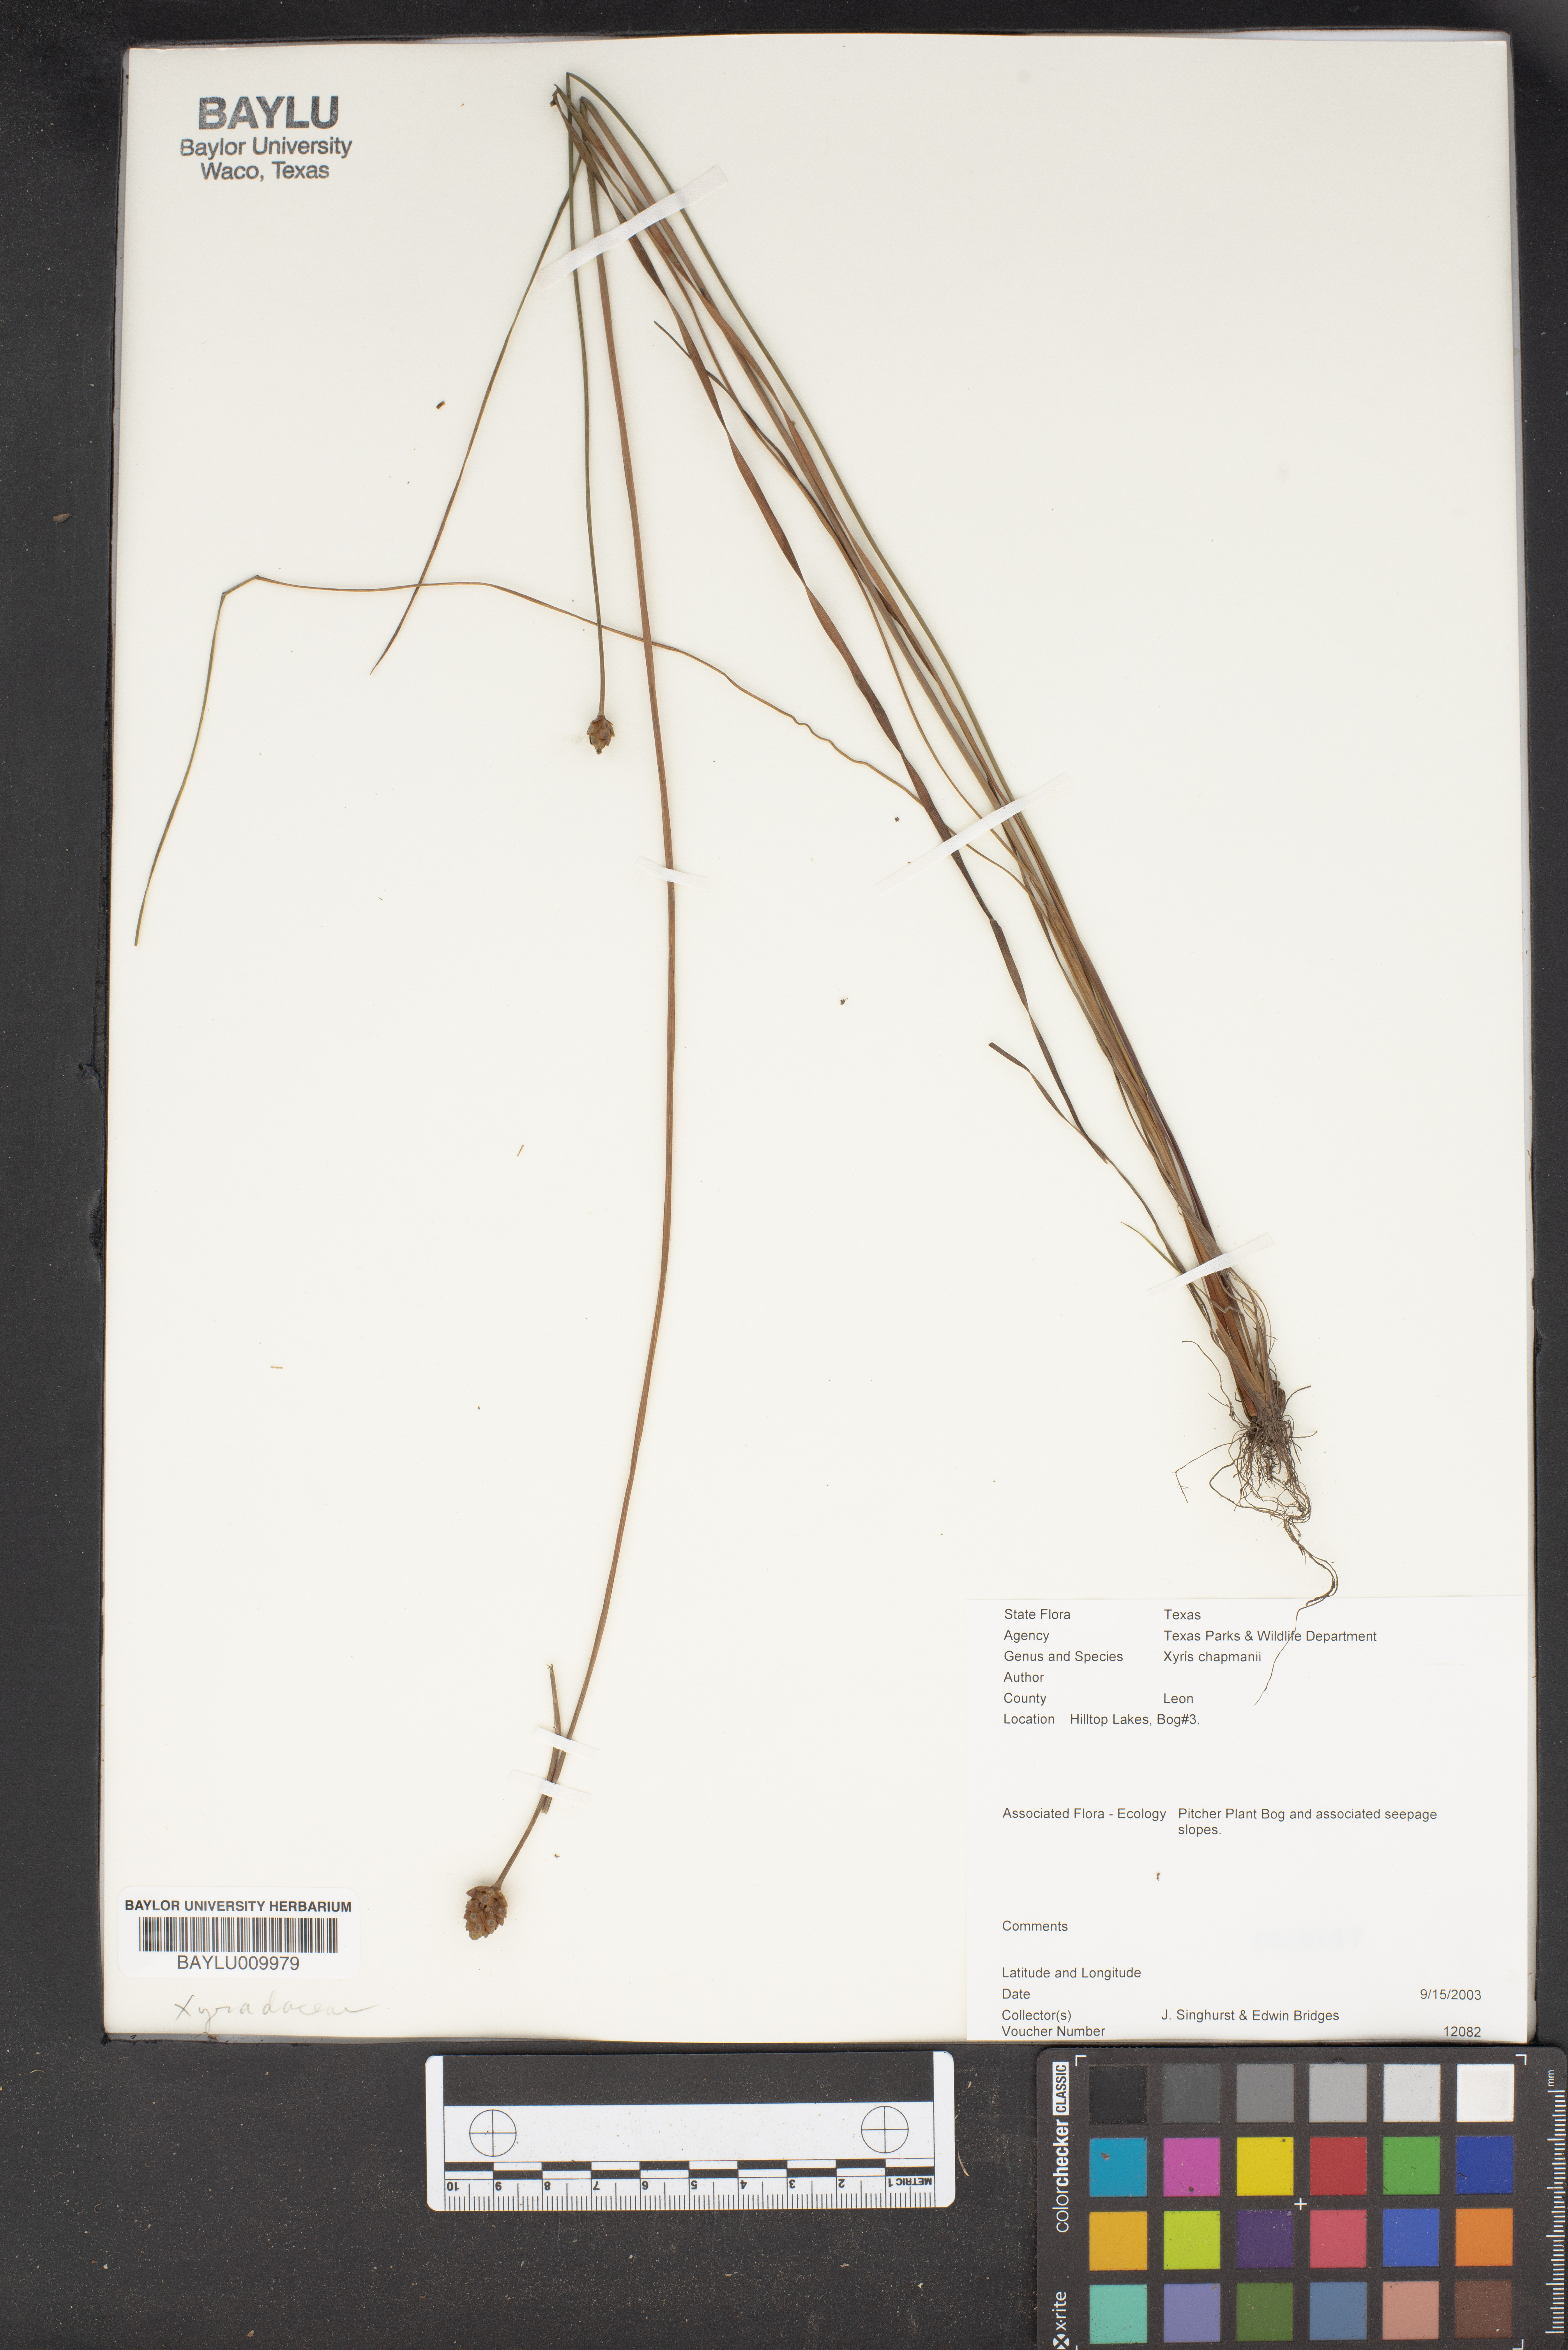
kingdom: Plantae
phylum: Tracheophyta
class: Liliopsida
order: Poales
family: Xyridaceae
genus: Xyris
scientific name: Xyris chapmanii
